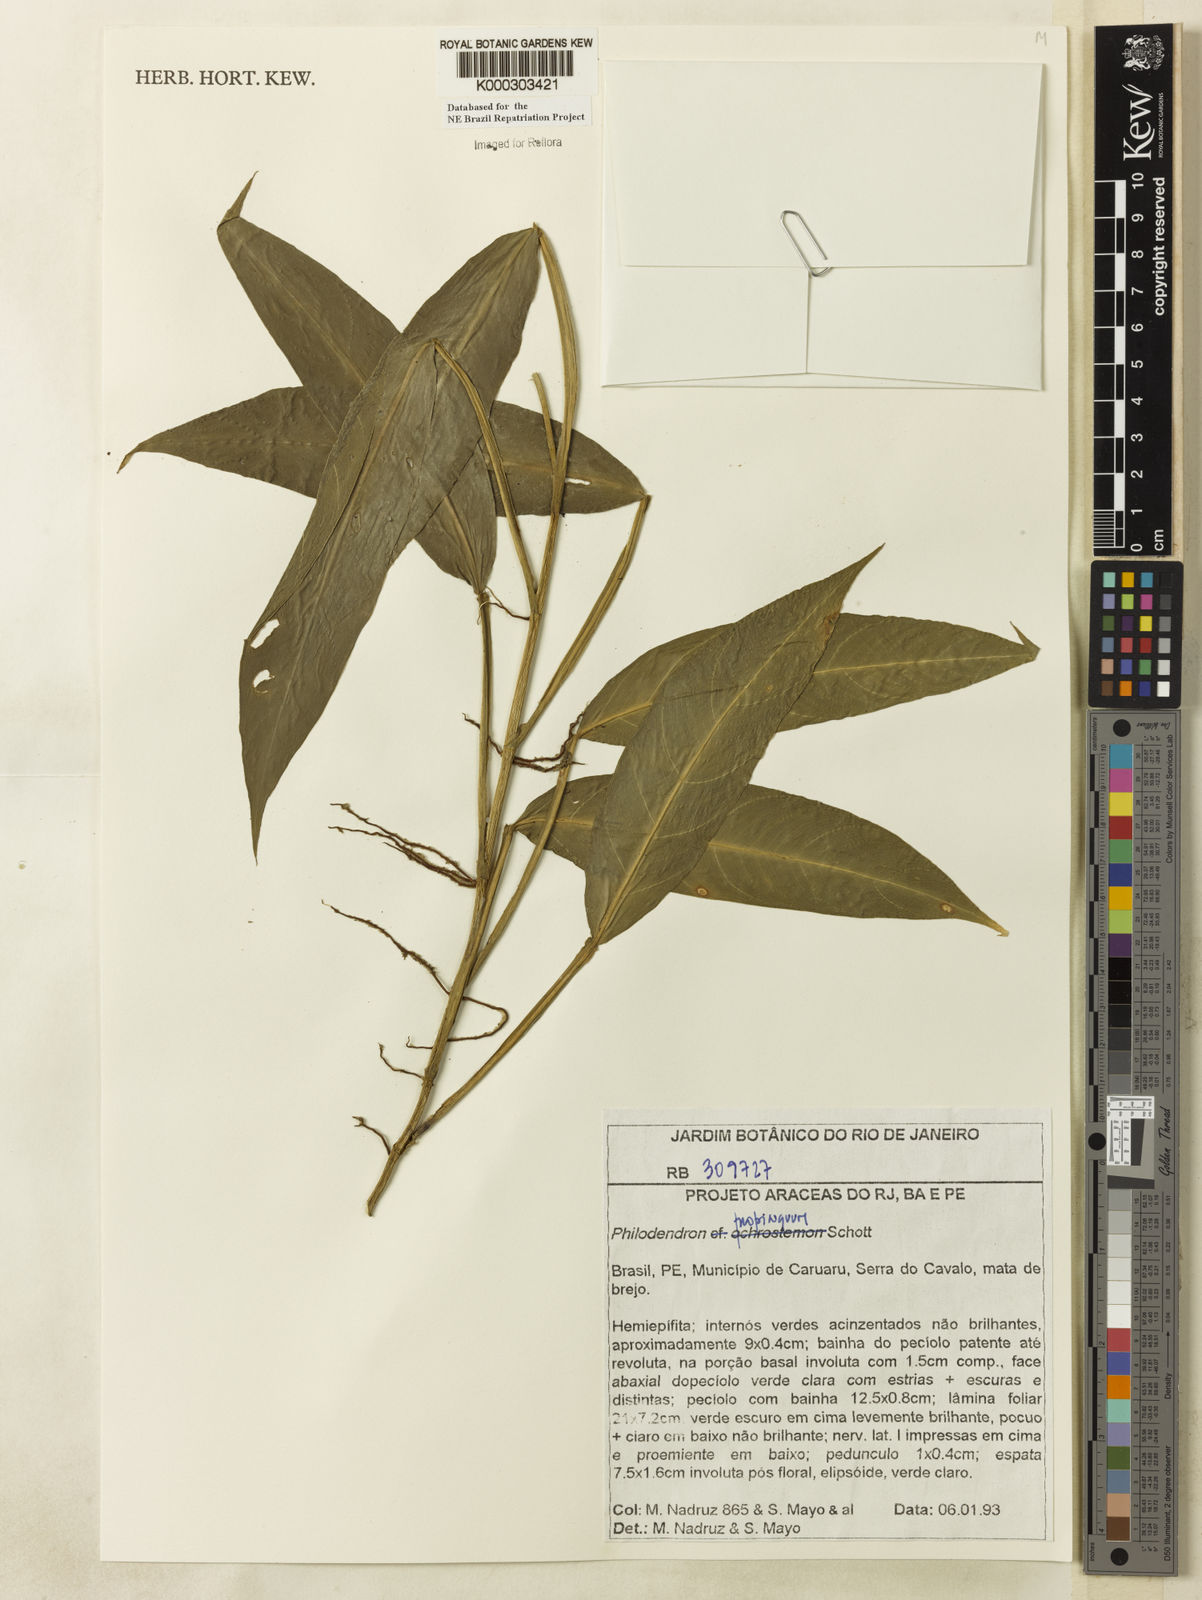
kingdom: Plantae
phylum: Tracheophyta
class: Liliopsida
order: Alismatales
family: Araceae
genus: Philodendron
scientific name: Philodendron propinquum
